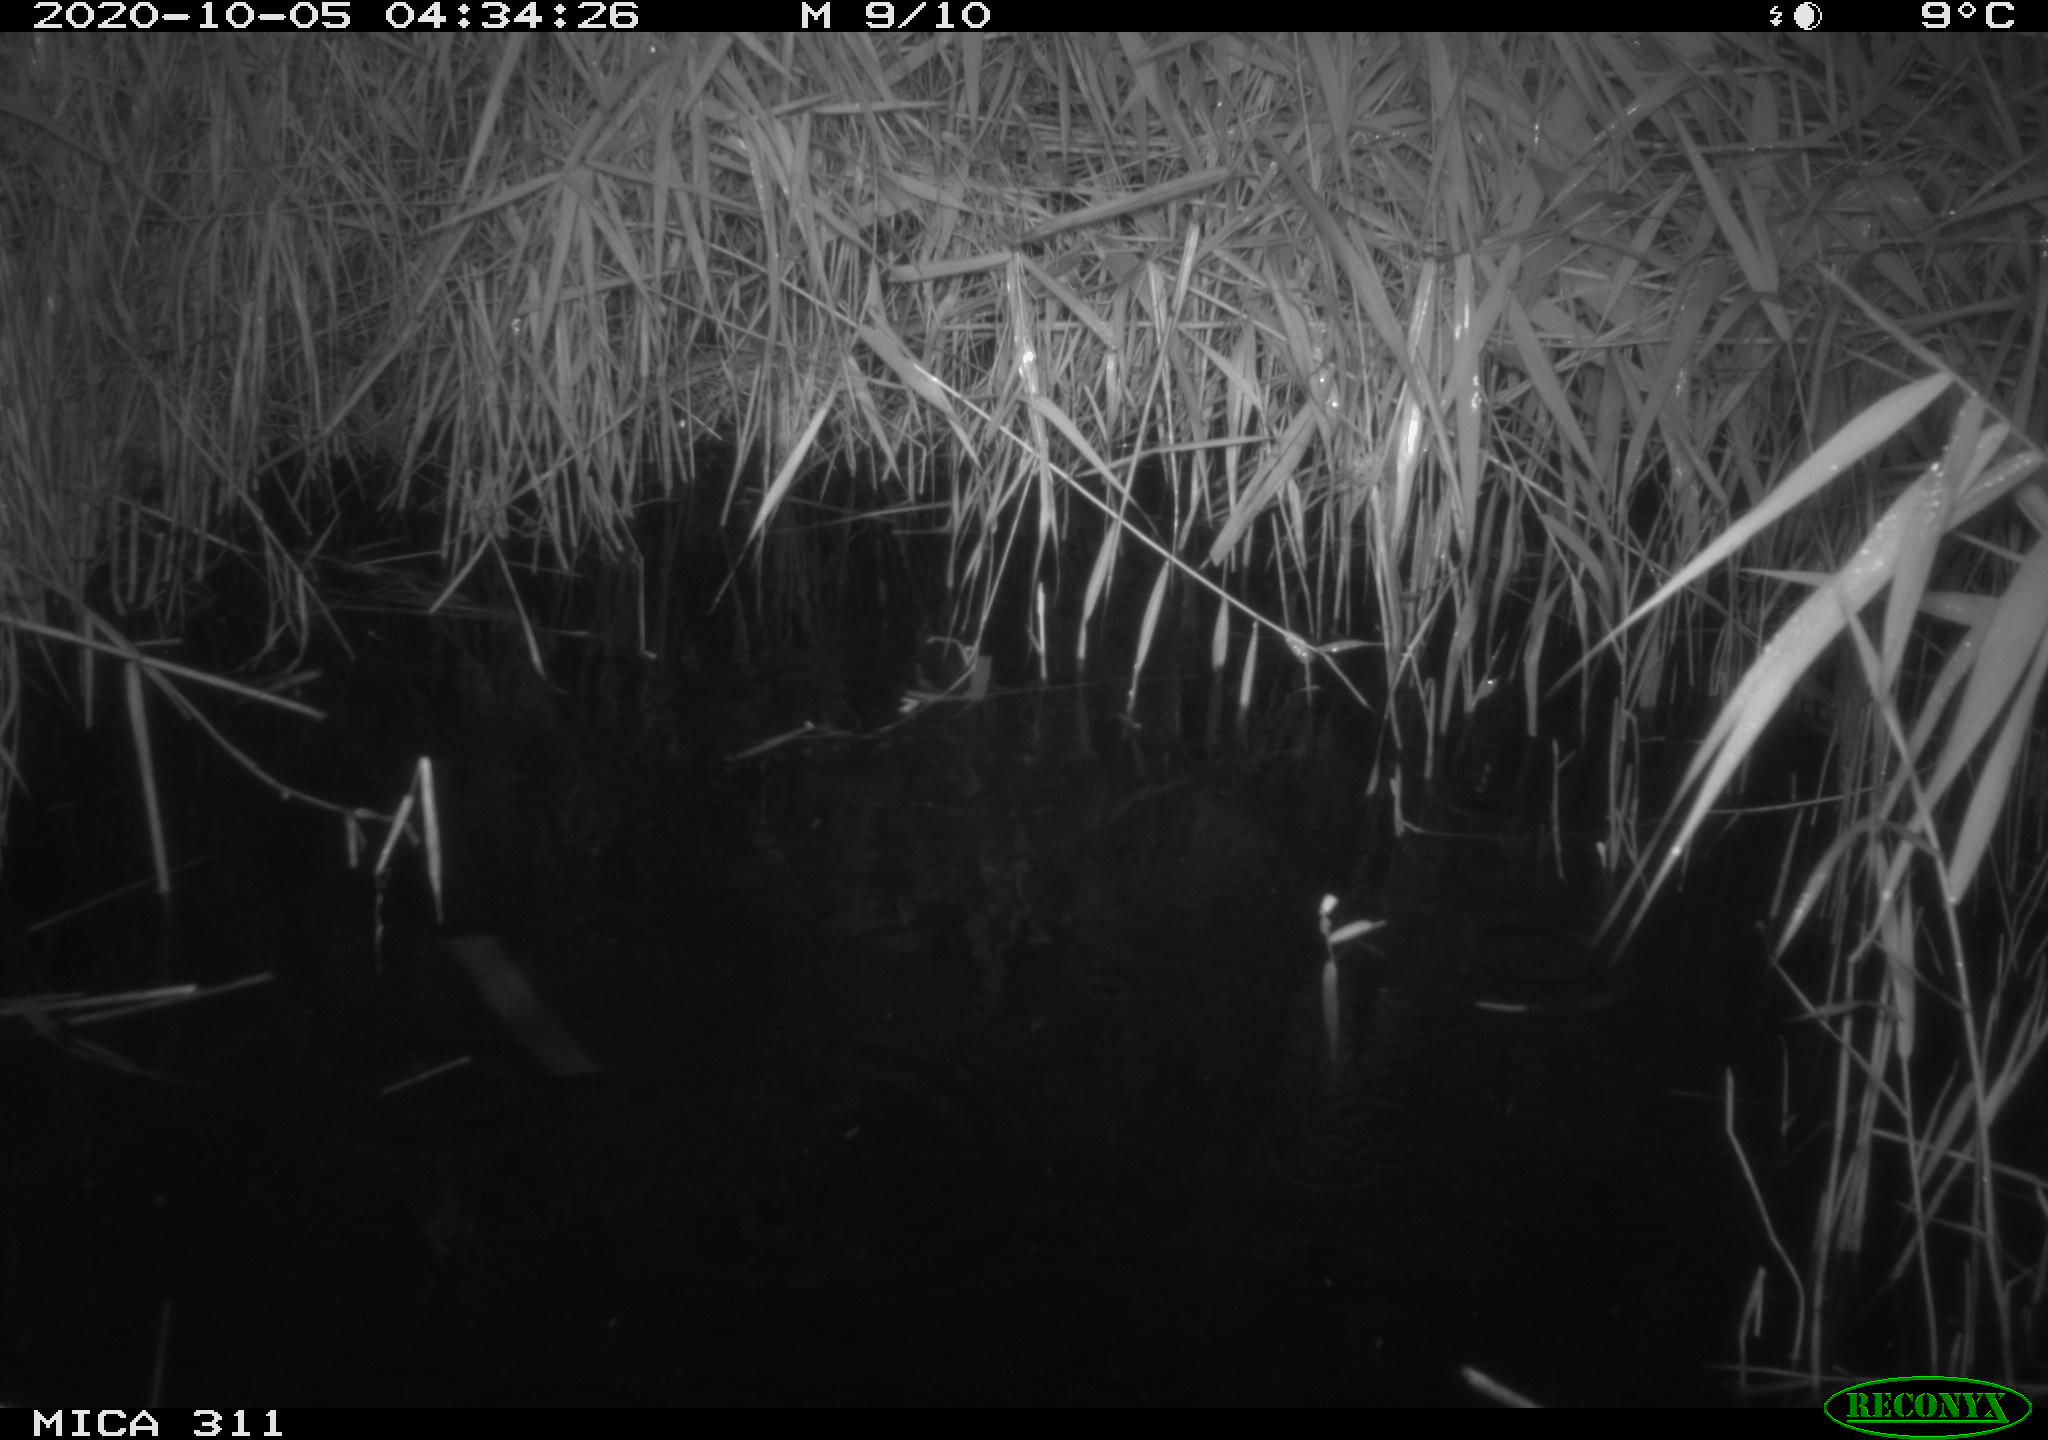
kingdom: Animalia
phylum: Chordata
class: Mammalia
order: Rodentia
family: Muridae
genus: Rattus
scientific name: Rattus norvegicus
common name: Brown rat
